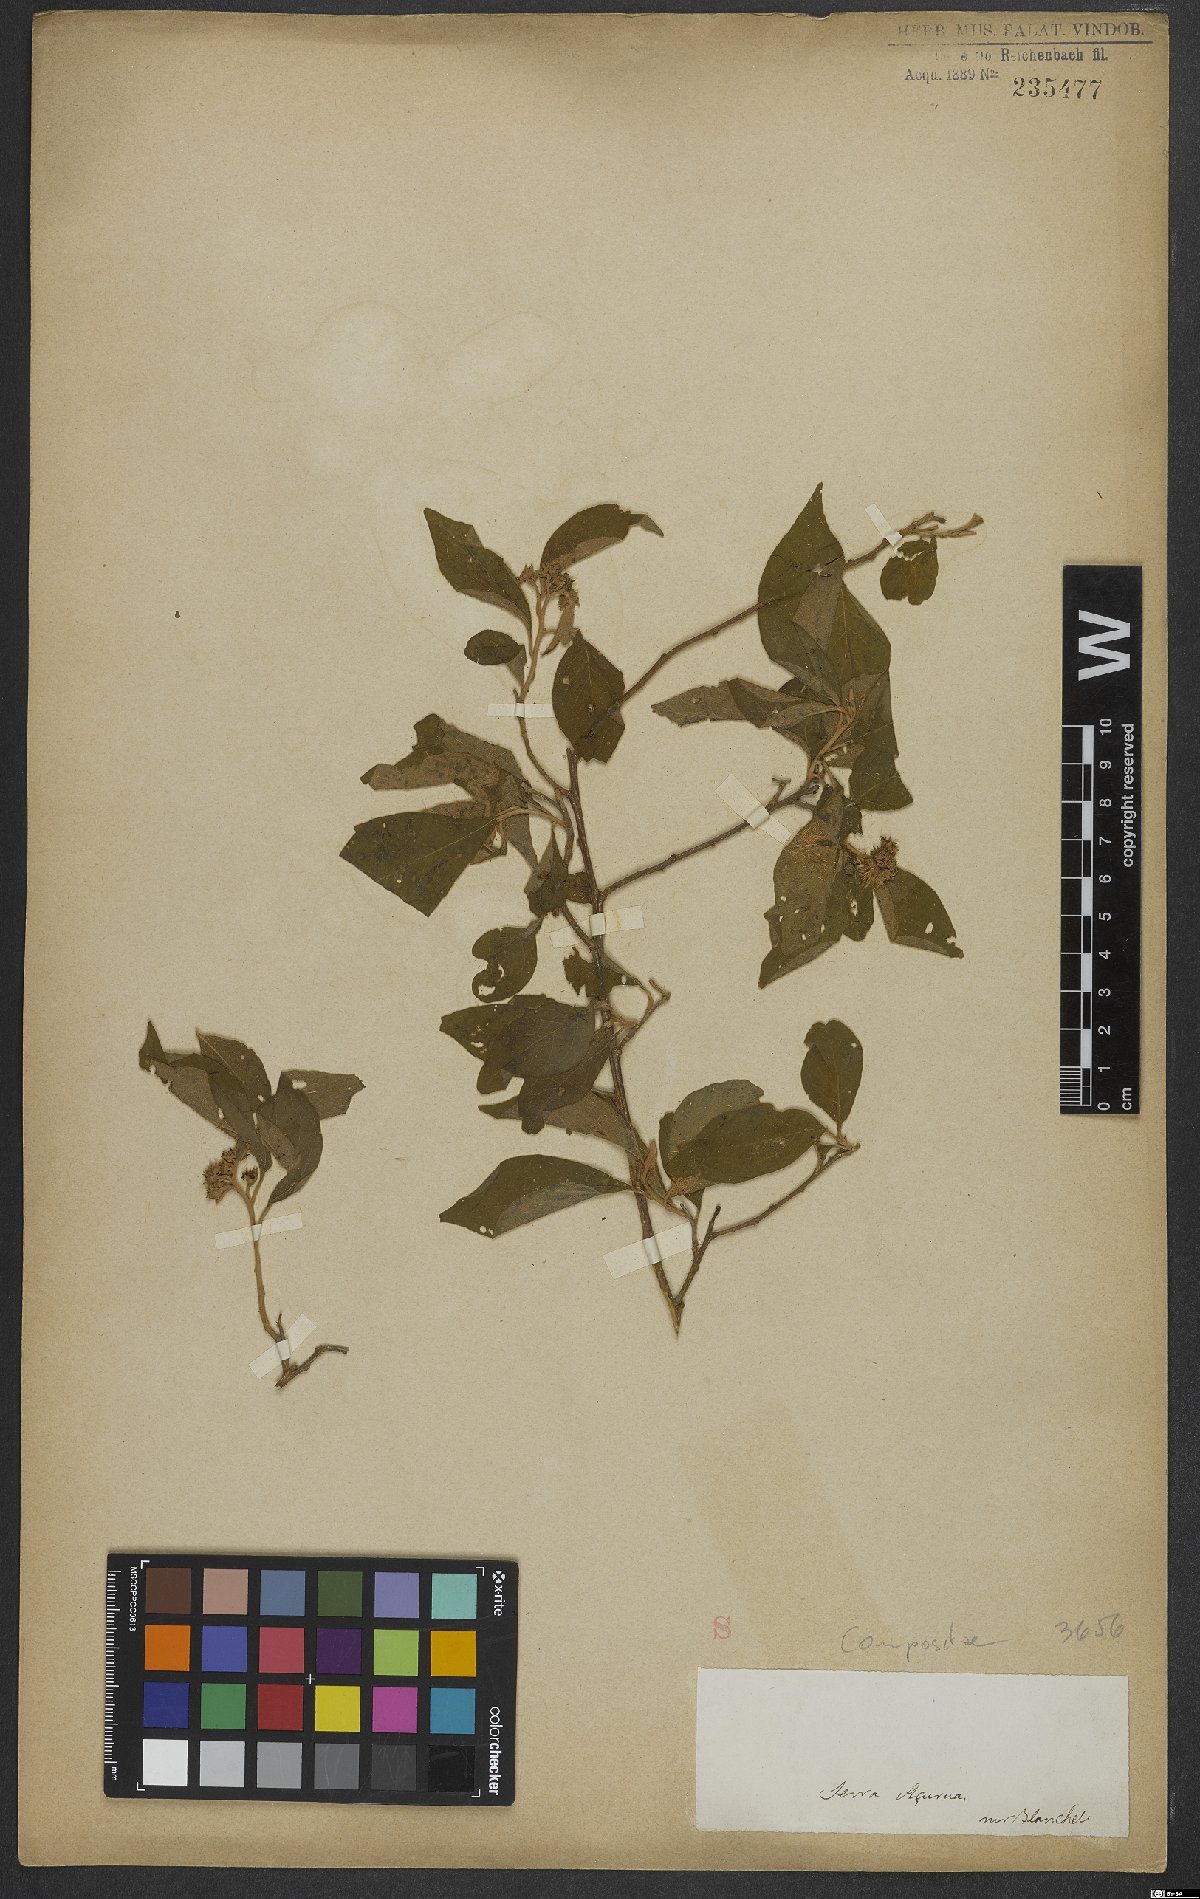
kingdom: Plantae
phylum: Tracheophyta
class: Magnoliopsida
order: Asterales
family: Asteraceae
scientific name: Asteraceae
